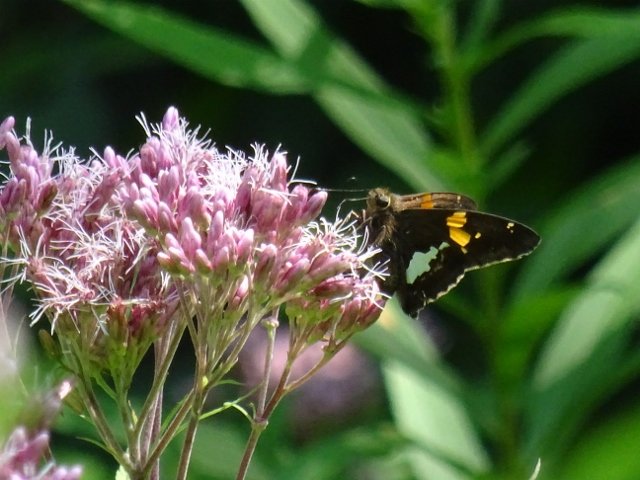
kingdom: Animalia
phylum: Arthropoda
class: Insecta
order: Lepidoptera
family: Hesperiidae
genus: Epargyreus
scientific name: Epargyreus clarus
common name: Silver-spotted Skipper
